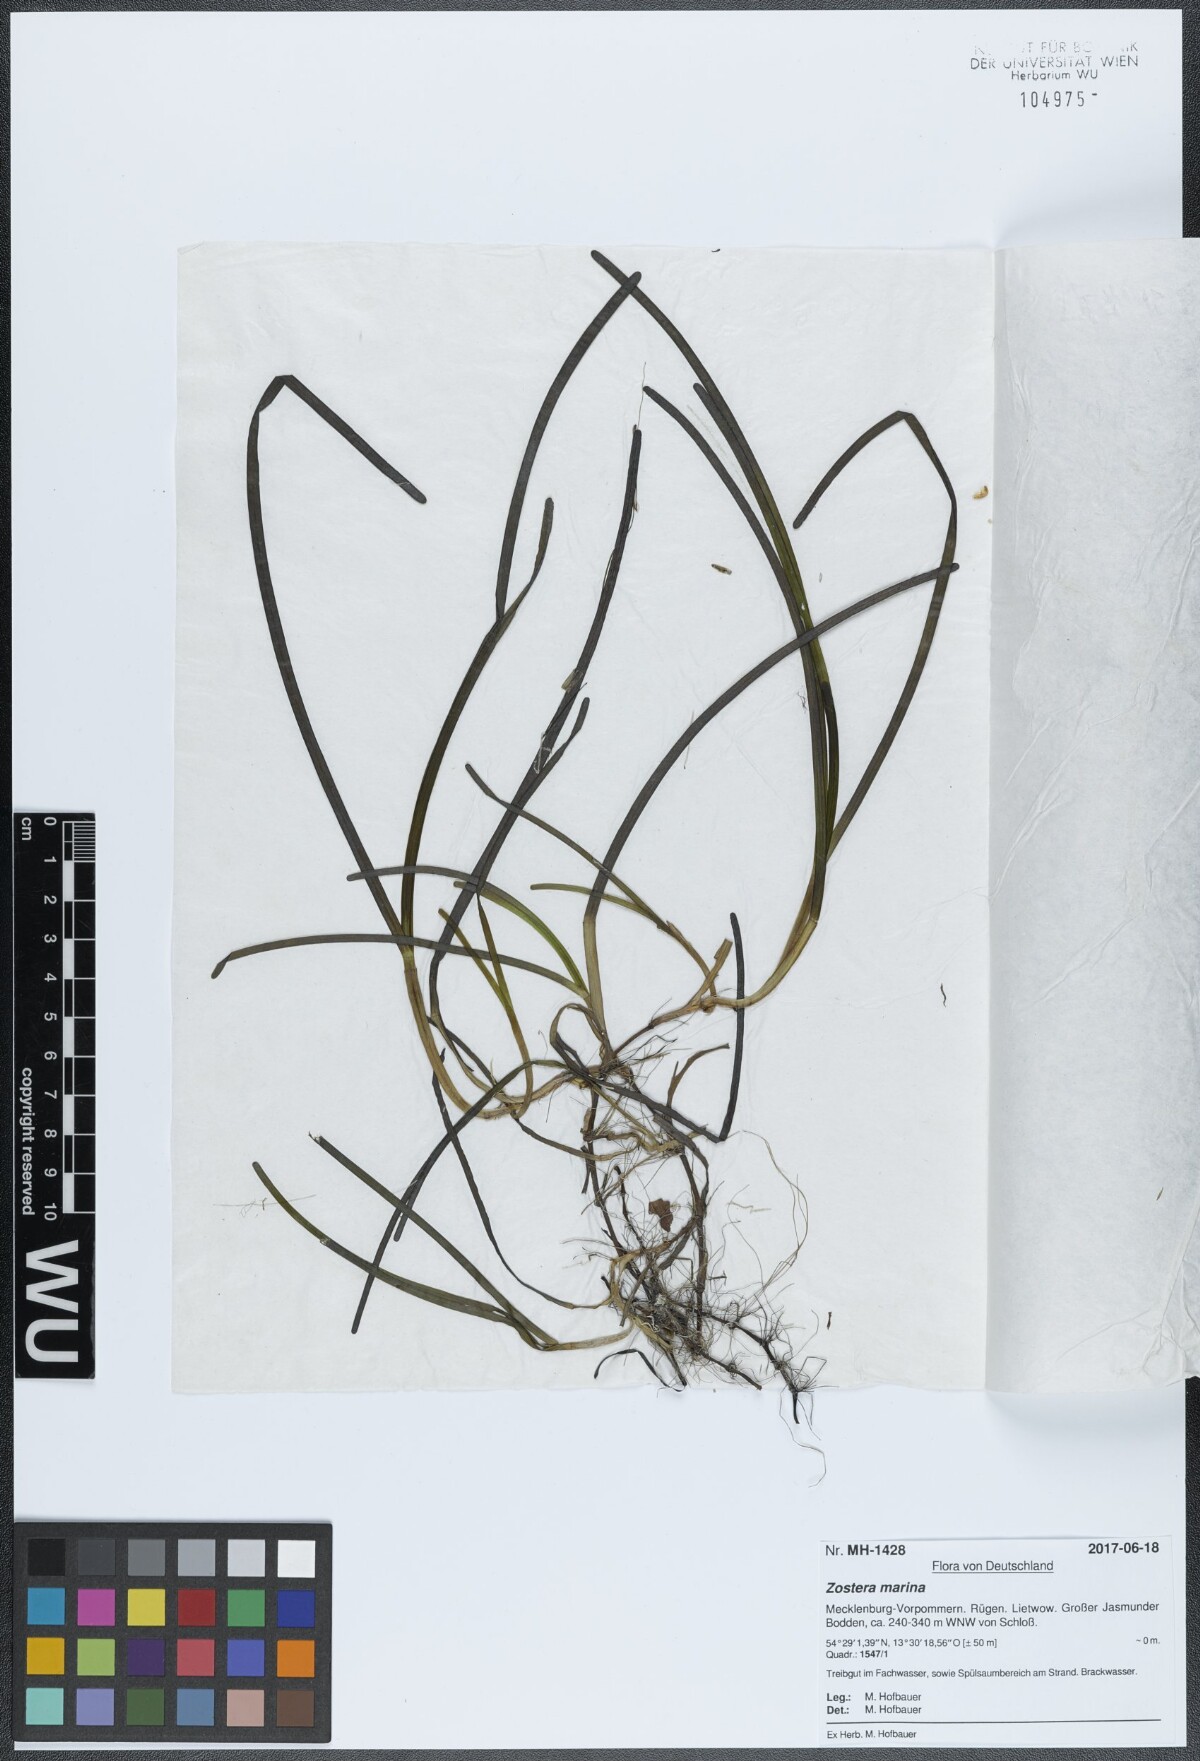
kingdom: Plantae
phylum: Tracheophyta
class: Liliopsida
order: Alismatales
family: Zosteraceae
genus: Zostera
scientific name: Zostera marina
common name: Eelgrass
